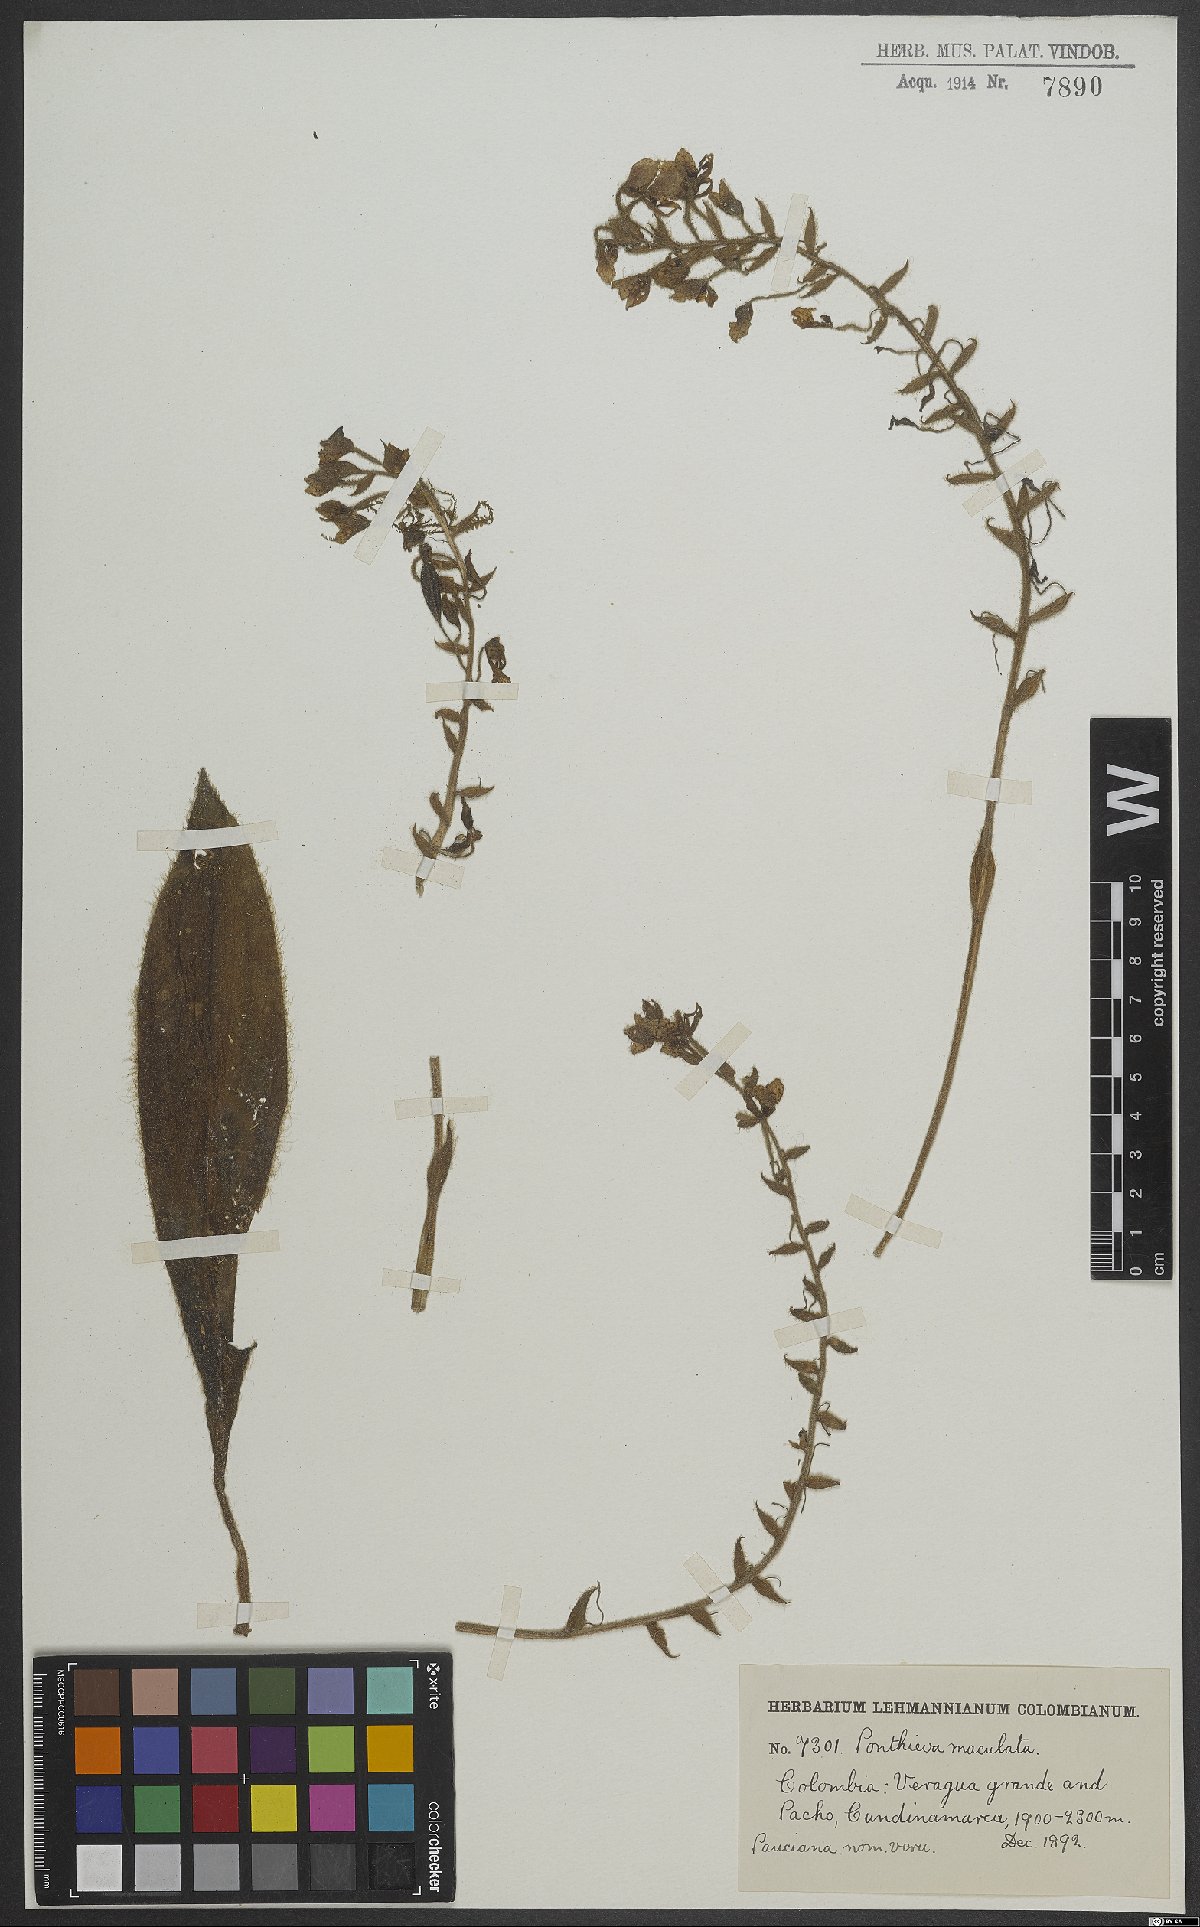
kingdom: Plantae
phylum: Tracheophyta
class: Liliopsida
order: Asparagales
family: Orchidaceae
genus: Ponthieva
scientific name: Ponthieva maculata
